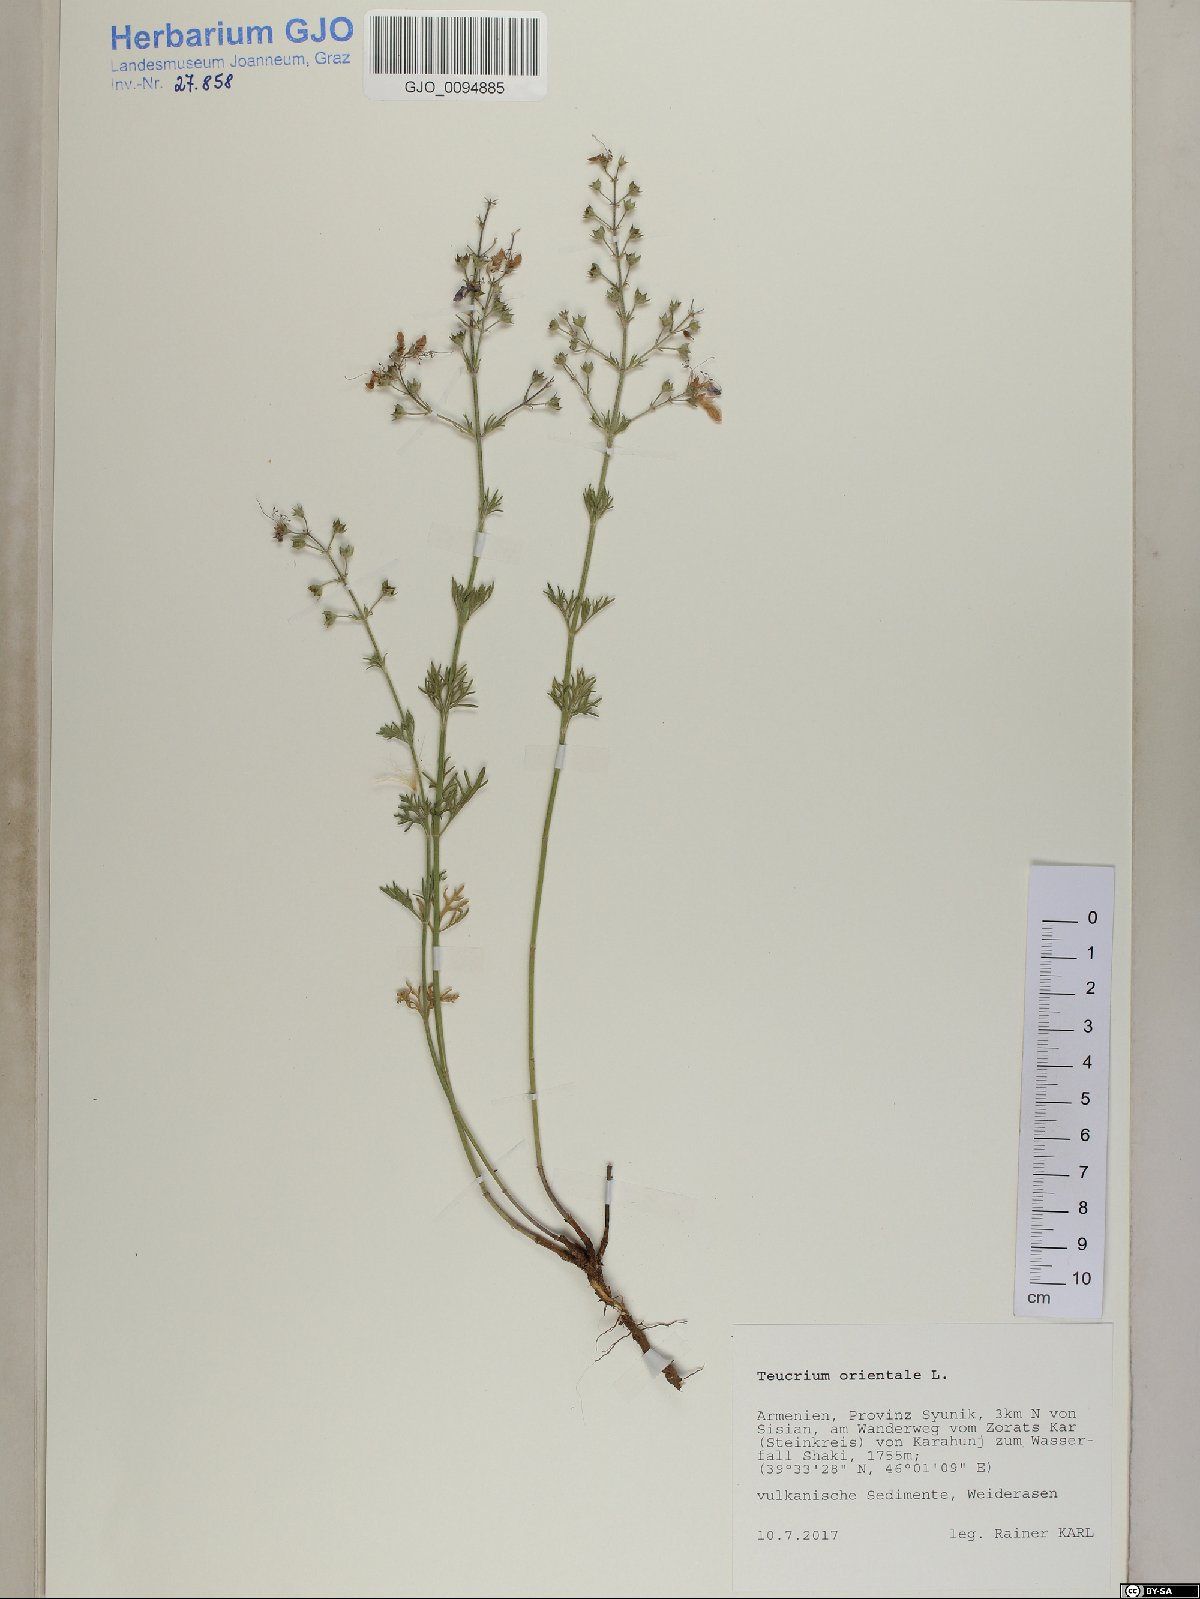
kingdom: Plantae
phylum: Tracheophyta
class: Magnoliopsida
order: Lamiales
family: Lamiaceae
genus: Teucrium
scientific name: Teucrium orientale
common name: Oriental germander
